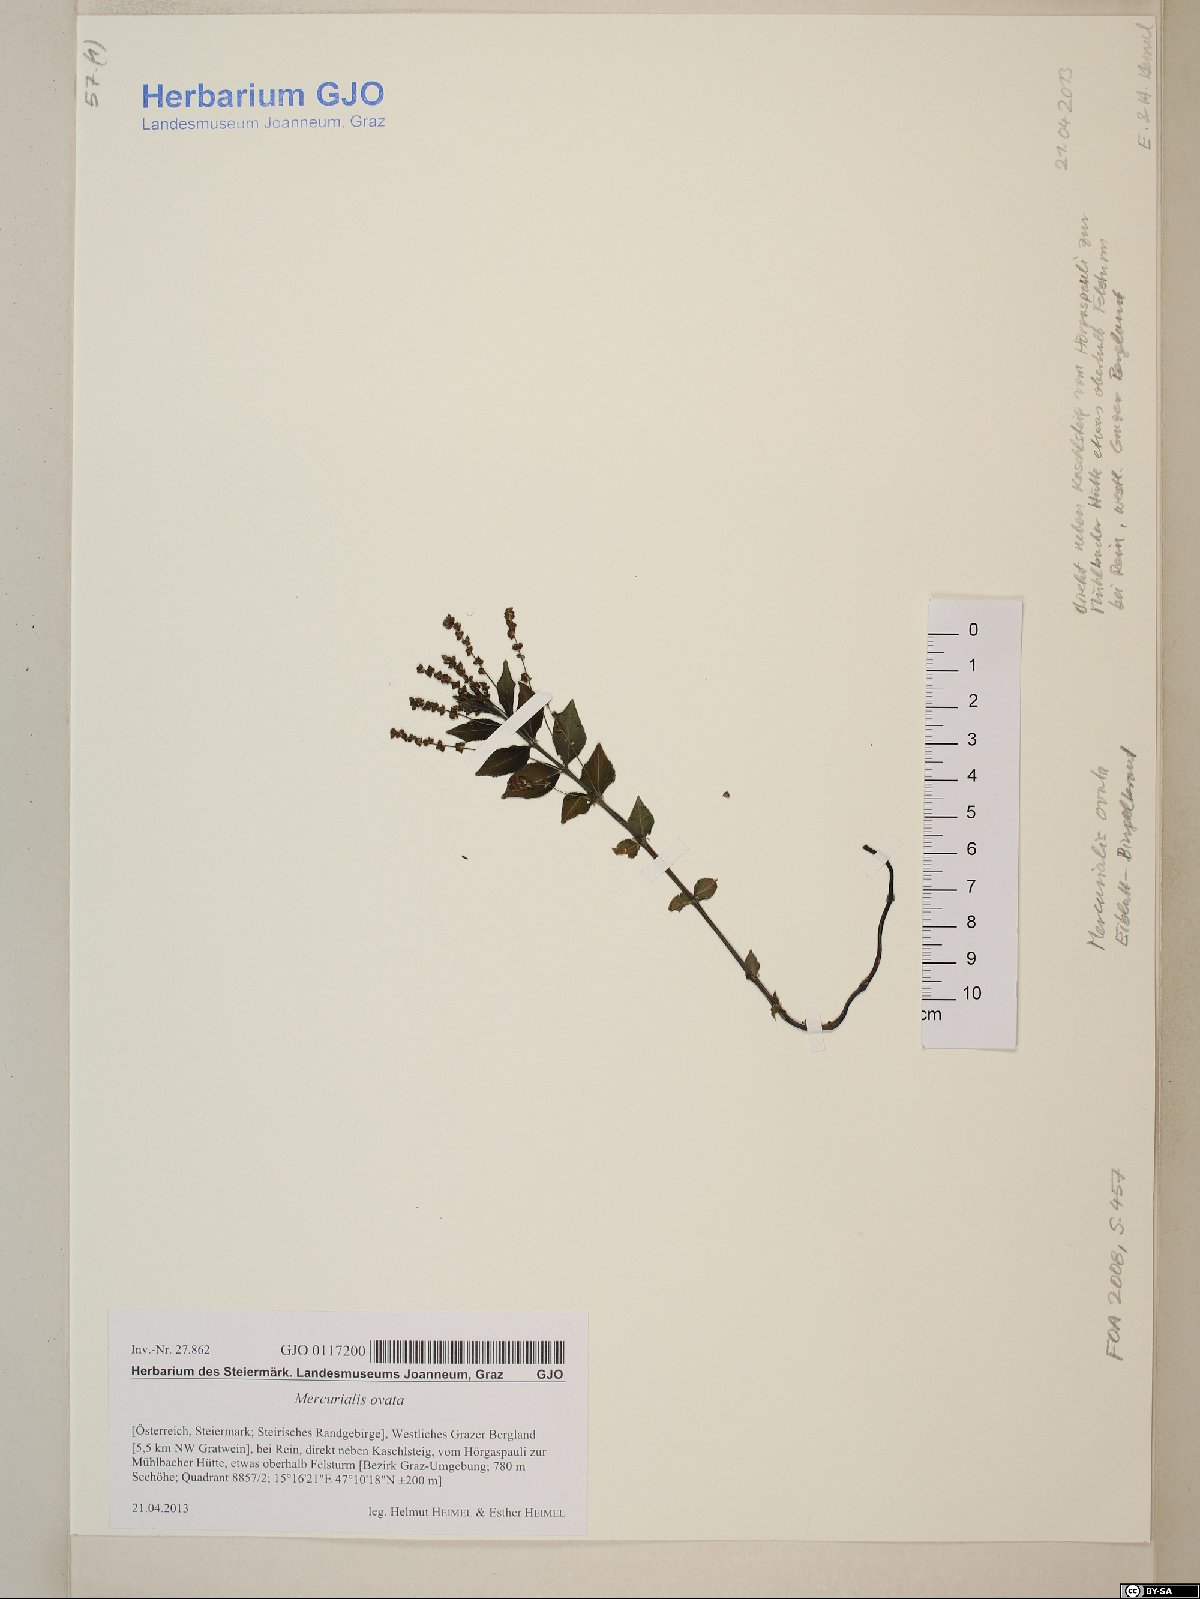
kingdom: Plantae
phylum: Tracheophyta
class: Magnoliopsida
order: Malpighiales
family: Euphorbiaceae
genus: Mercurialis
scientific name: Mercurialis ovata
